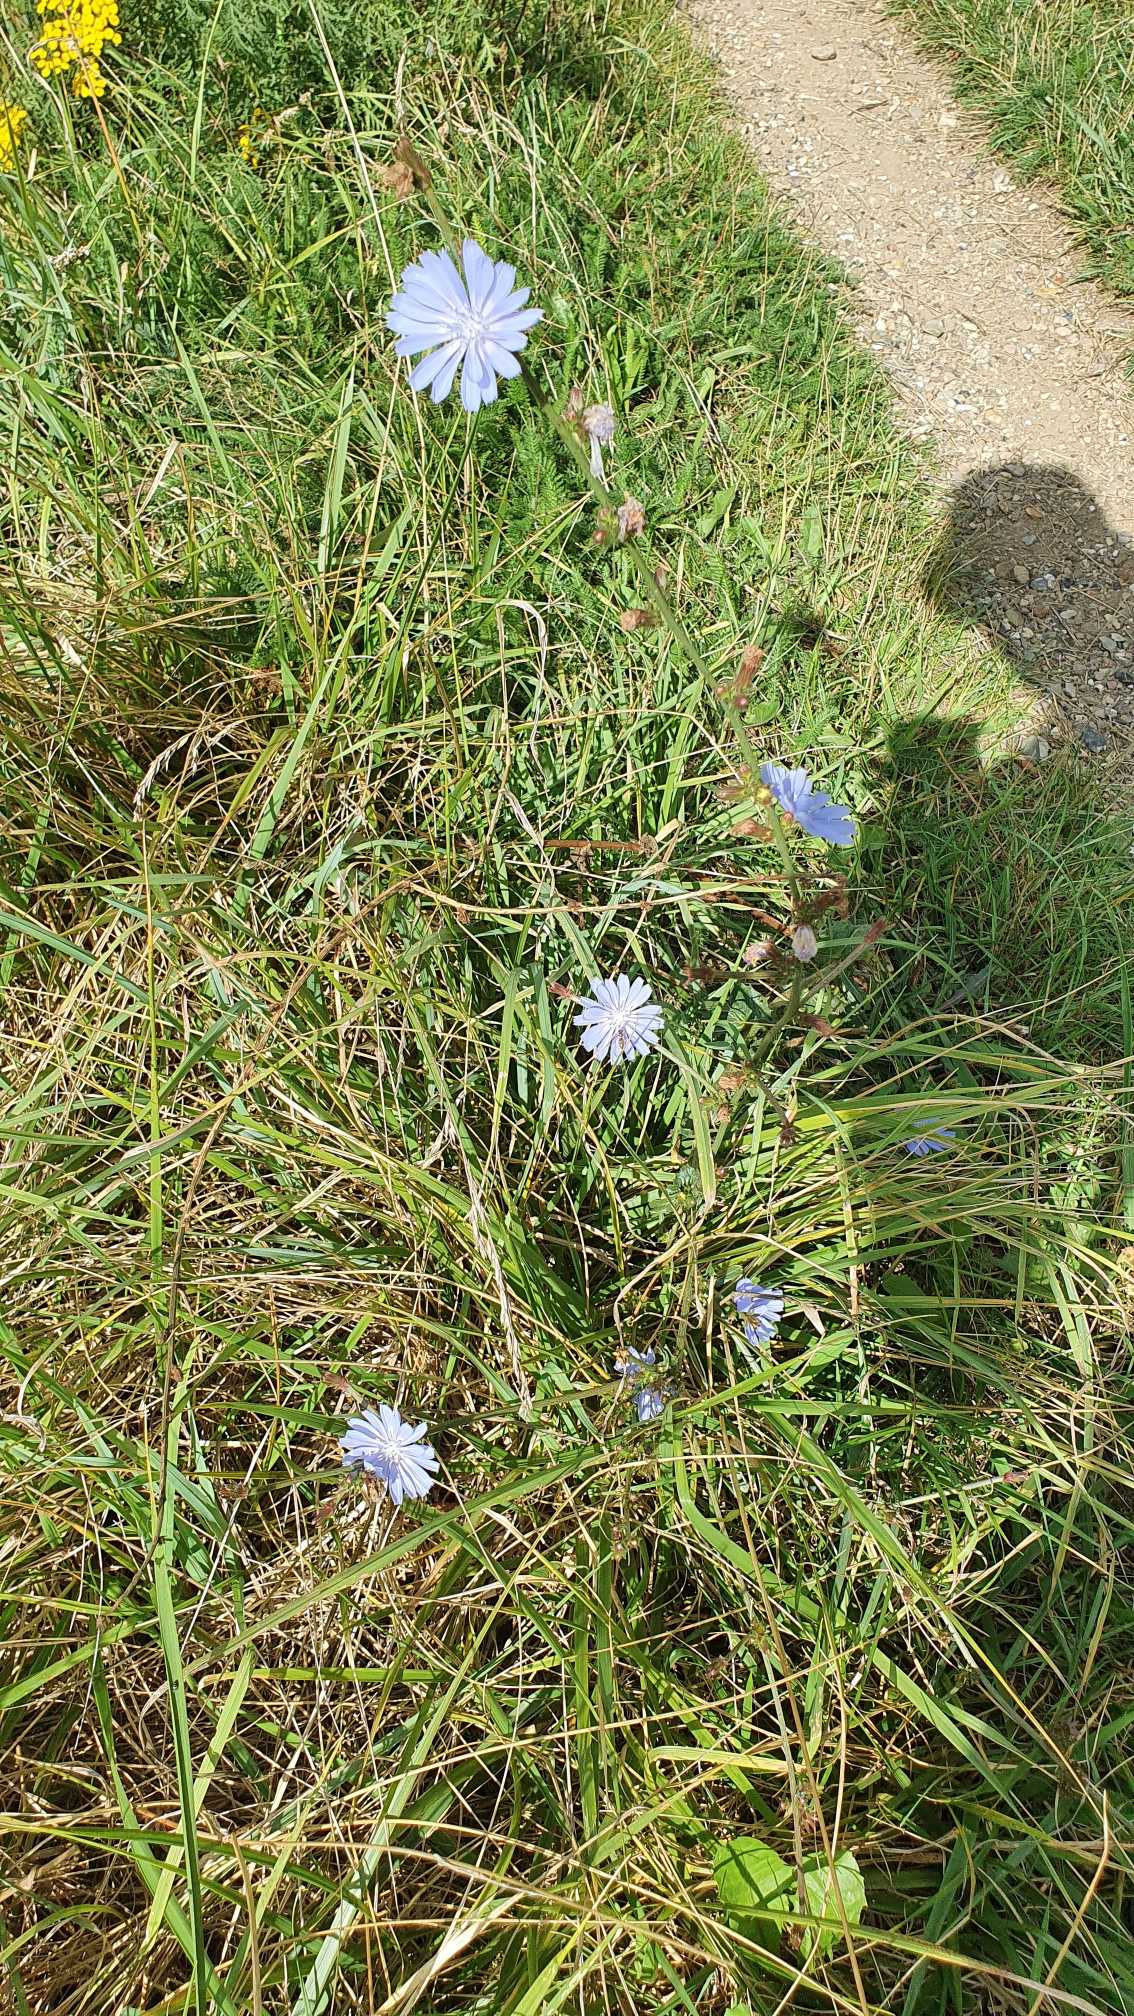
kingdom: Plantae
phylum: Tracheophyta
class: Magnoliopsida
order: Asterales
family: Asteraceae
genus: Cichorium
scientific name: Cichorium intybus
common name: Cikorie
